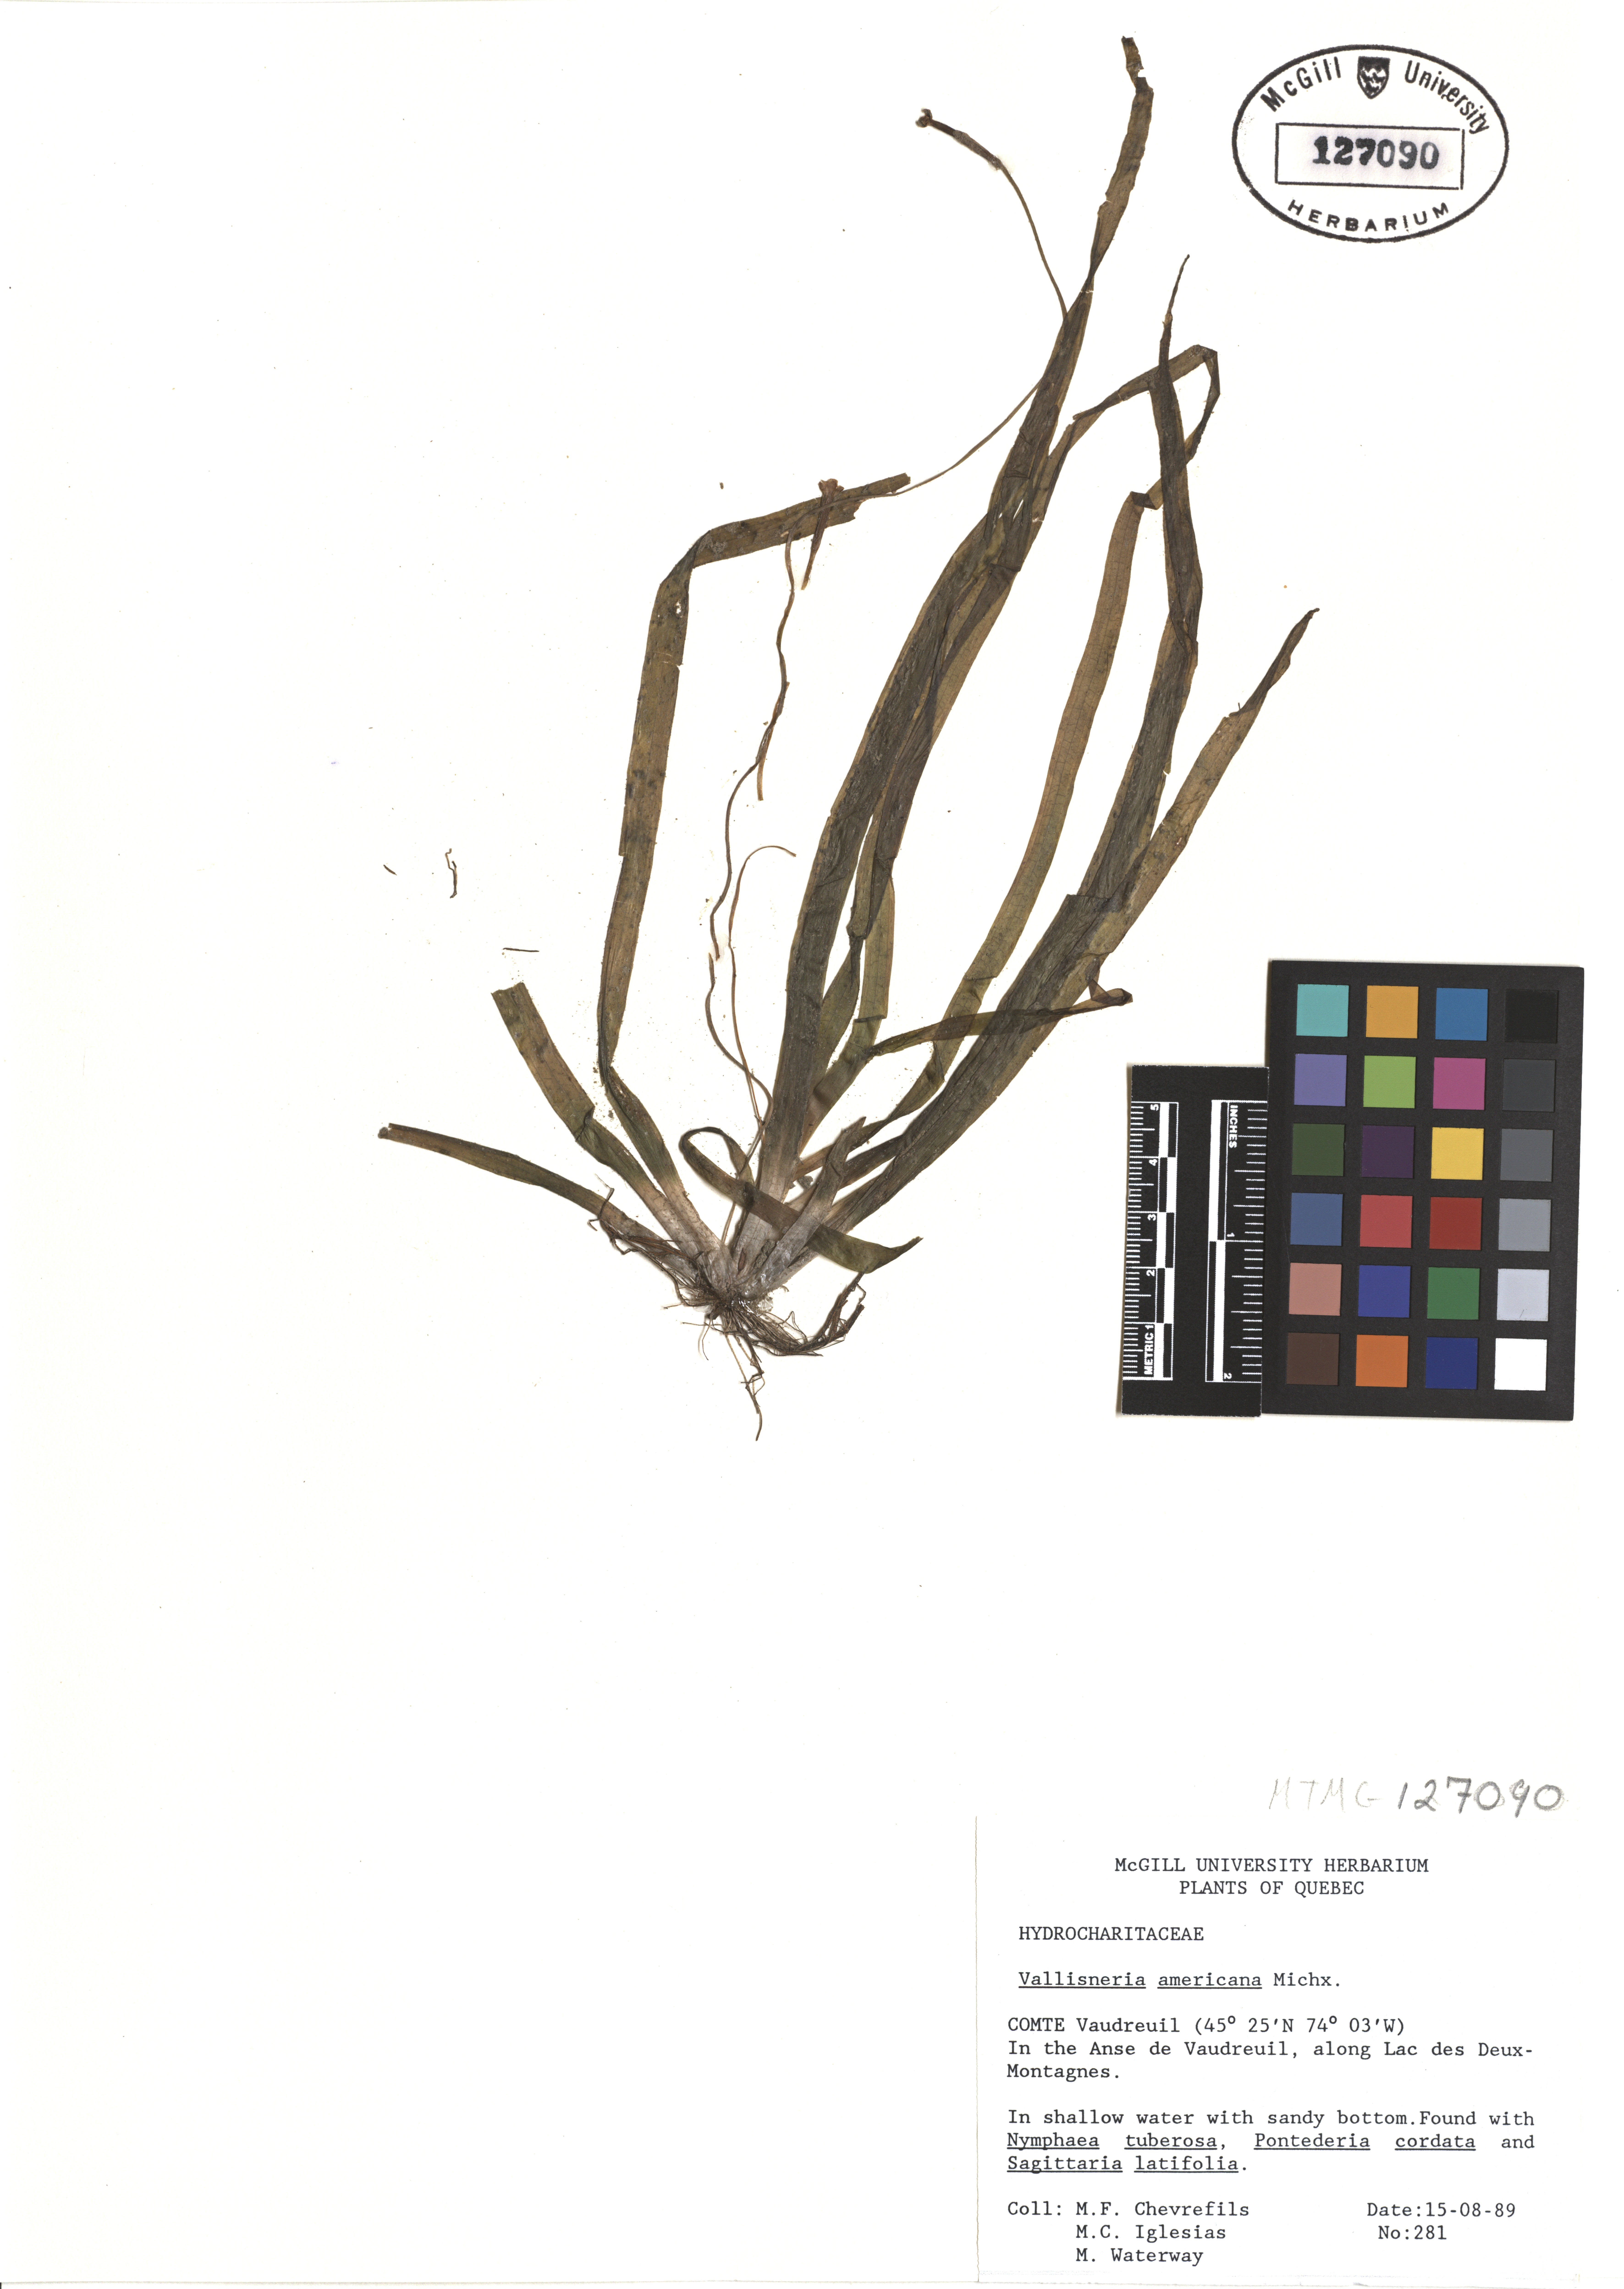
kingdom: Plantae
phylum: Tracheophyta
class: Liliopsida
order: Alismatales
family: Hydrocharitaceae
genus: Vallisneria
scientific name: Vallisneria americana
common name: American eelgrass
